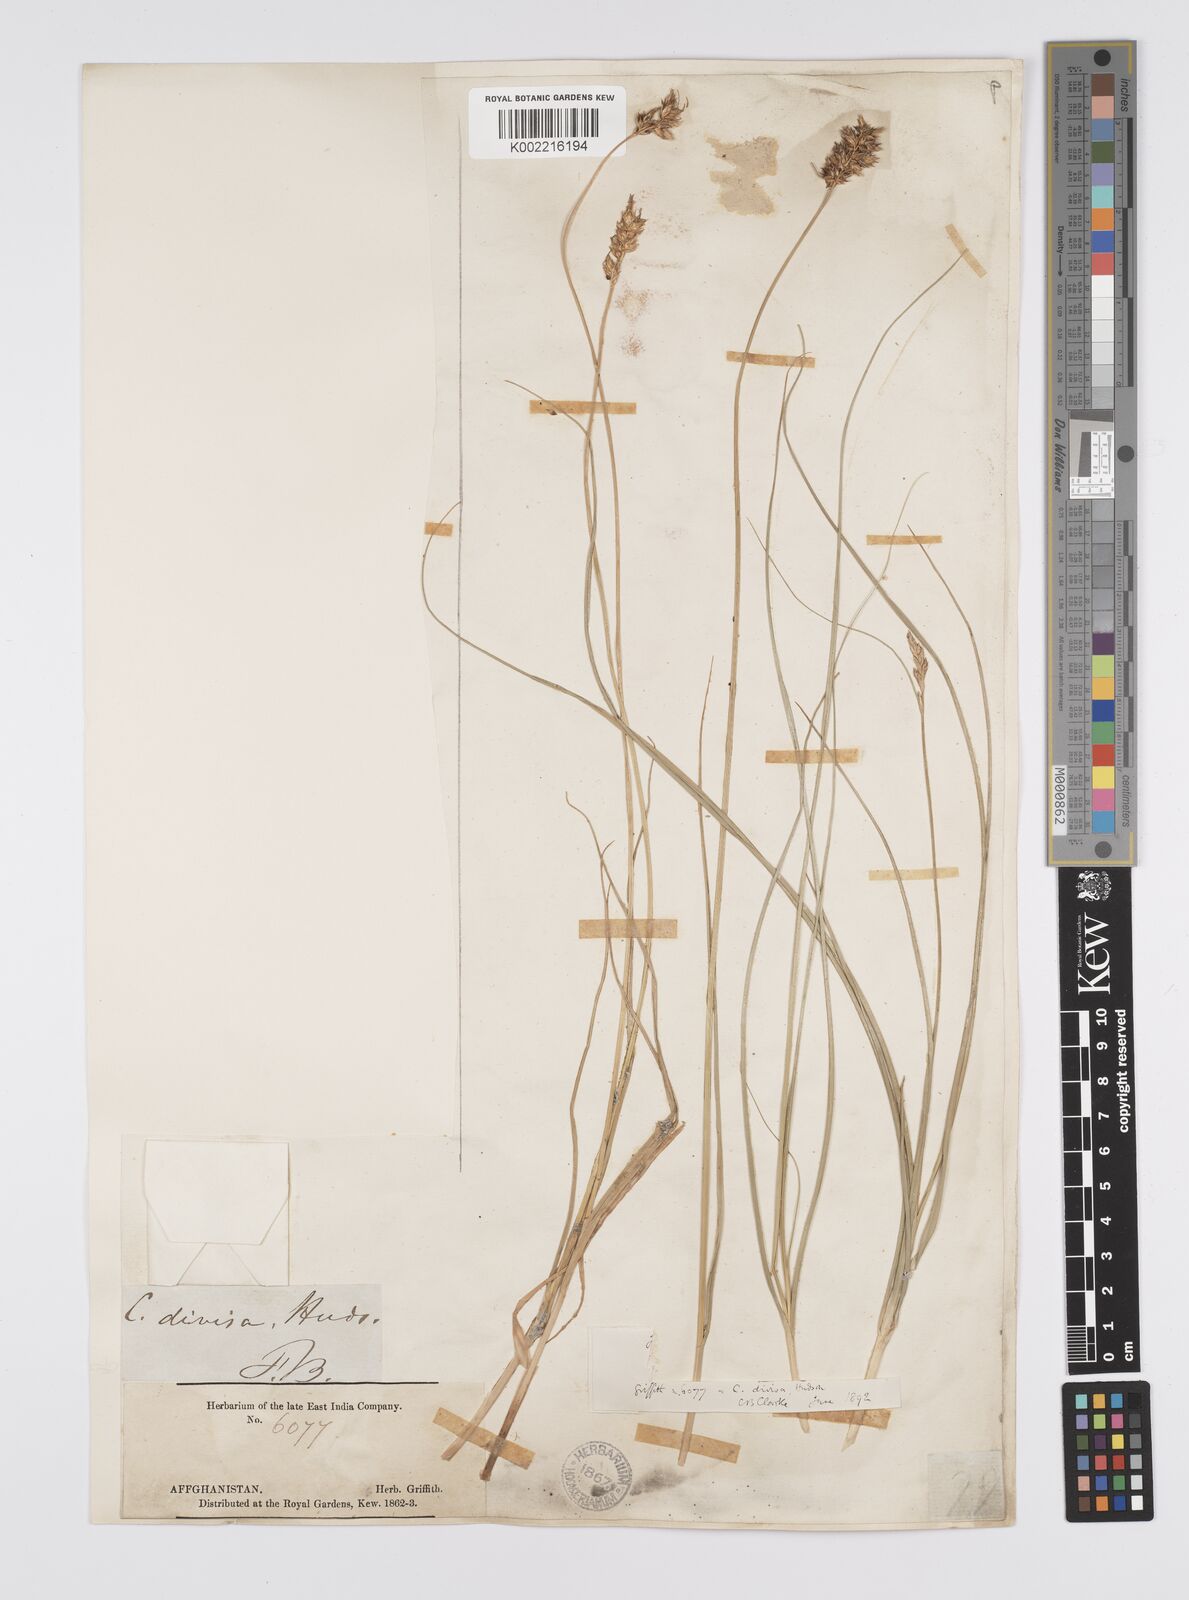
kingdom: Plantae
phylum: Tracheophyta
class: Liliopsida
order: Poales
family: Cyperaceae
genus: Carex
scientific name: Carex divisa
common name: Divided sedge
